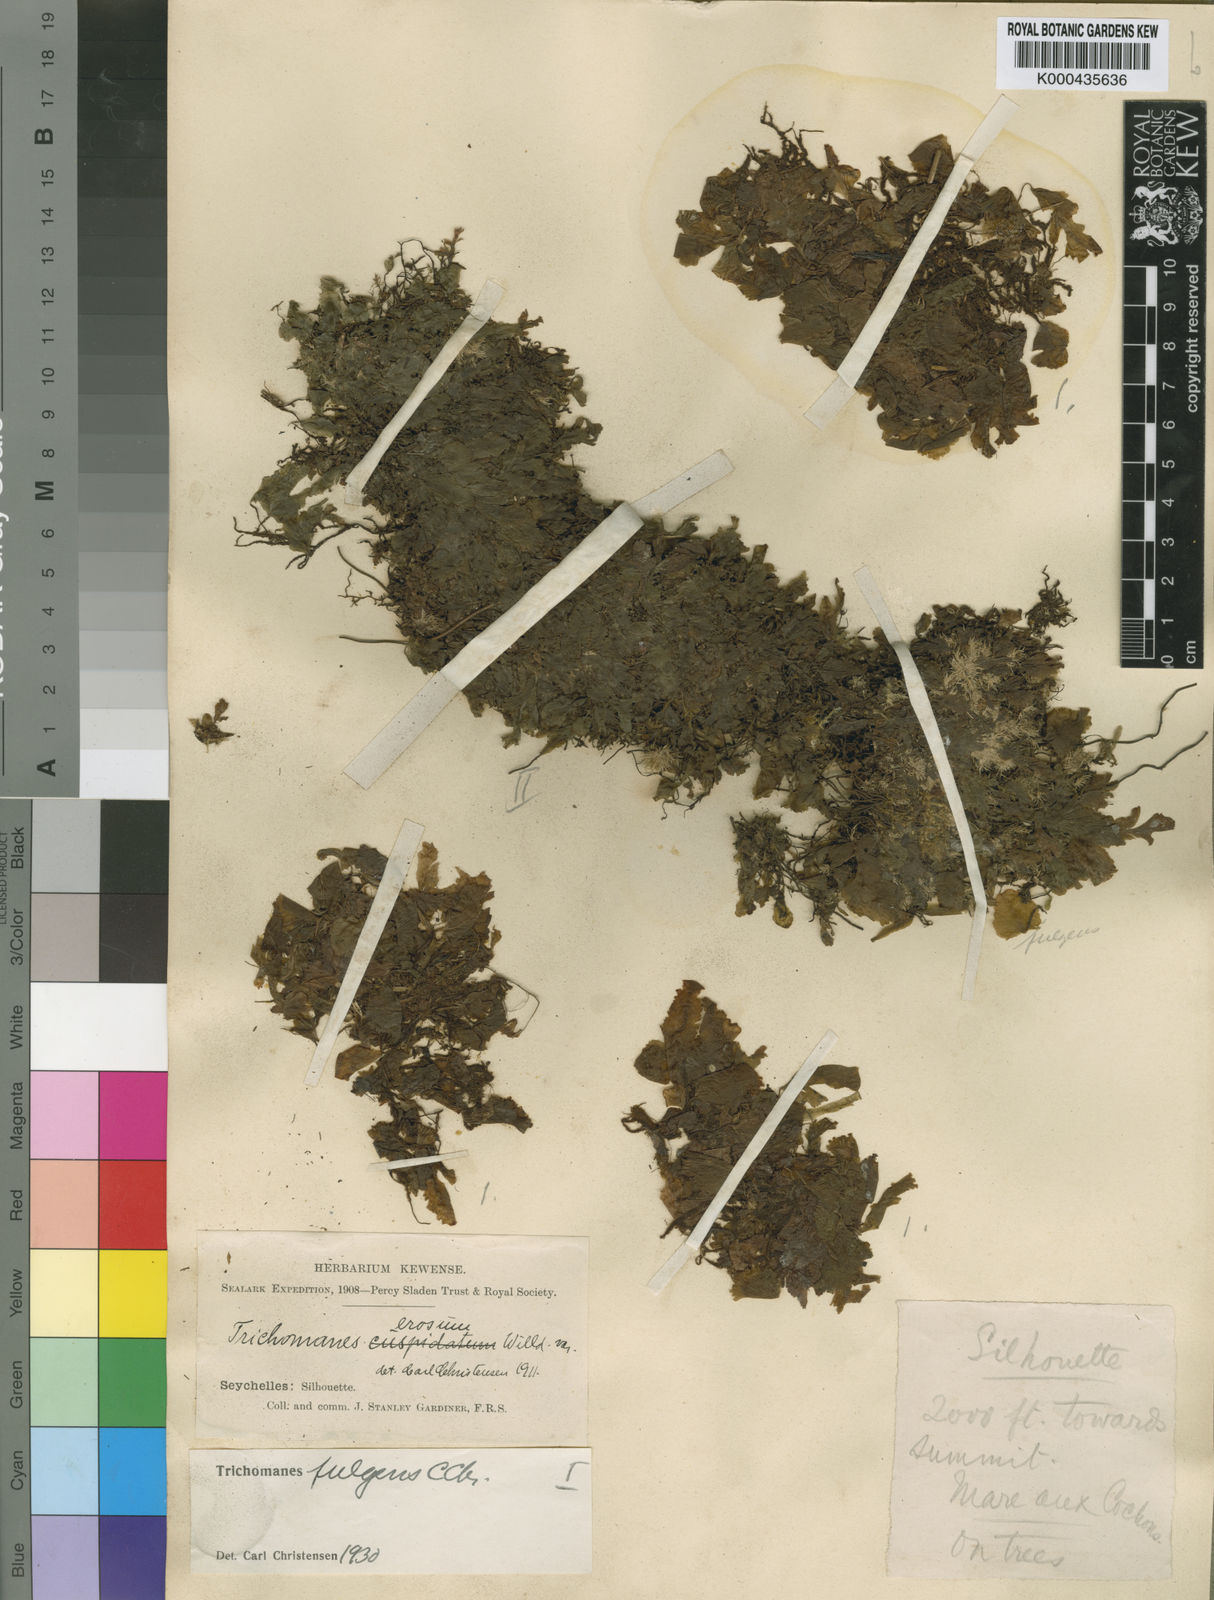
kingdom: Plantae
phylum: Tracheophyta
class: Polypodiopsida
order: Hymenophyllales
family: Hymenophyllaceae
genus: Didymoglossum
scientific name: Didymoglossum fulgens
